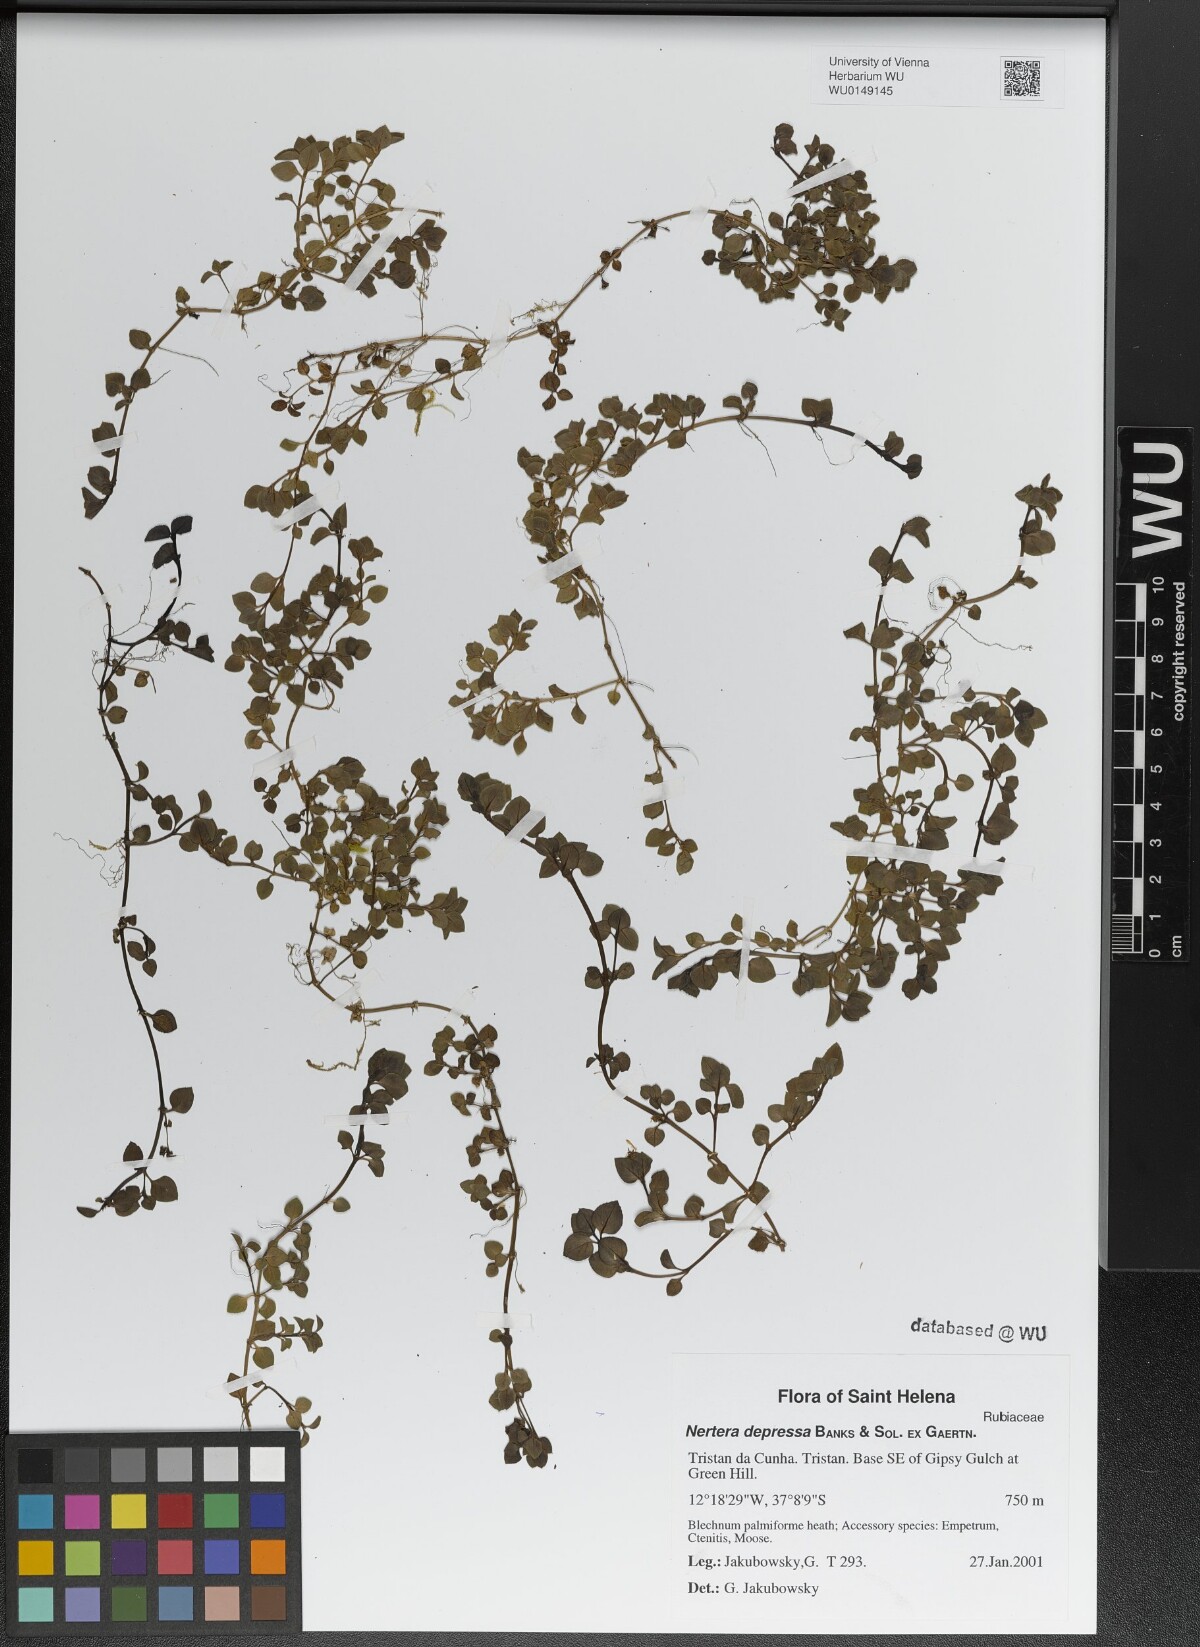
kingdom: Plantae
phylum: Tracheophyta
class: Magnoliopsida
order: Gentianales
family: Rubiaceae
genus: Nertera
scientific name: Nertera granadensis
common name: Beadplant
